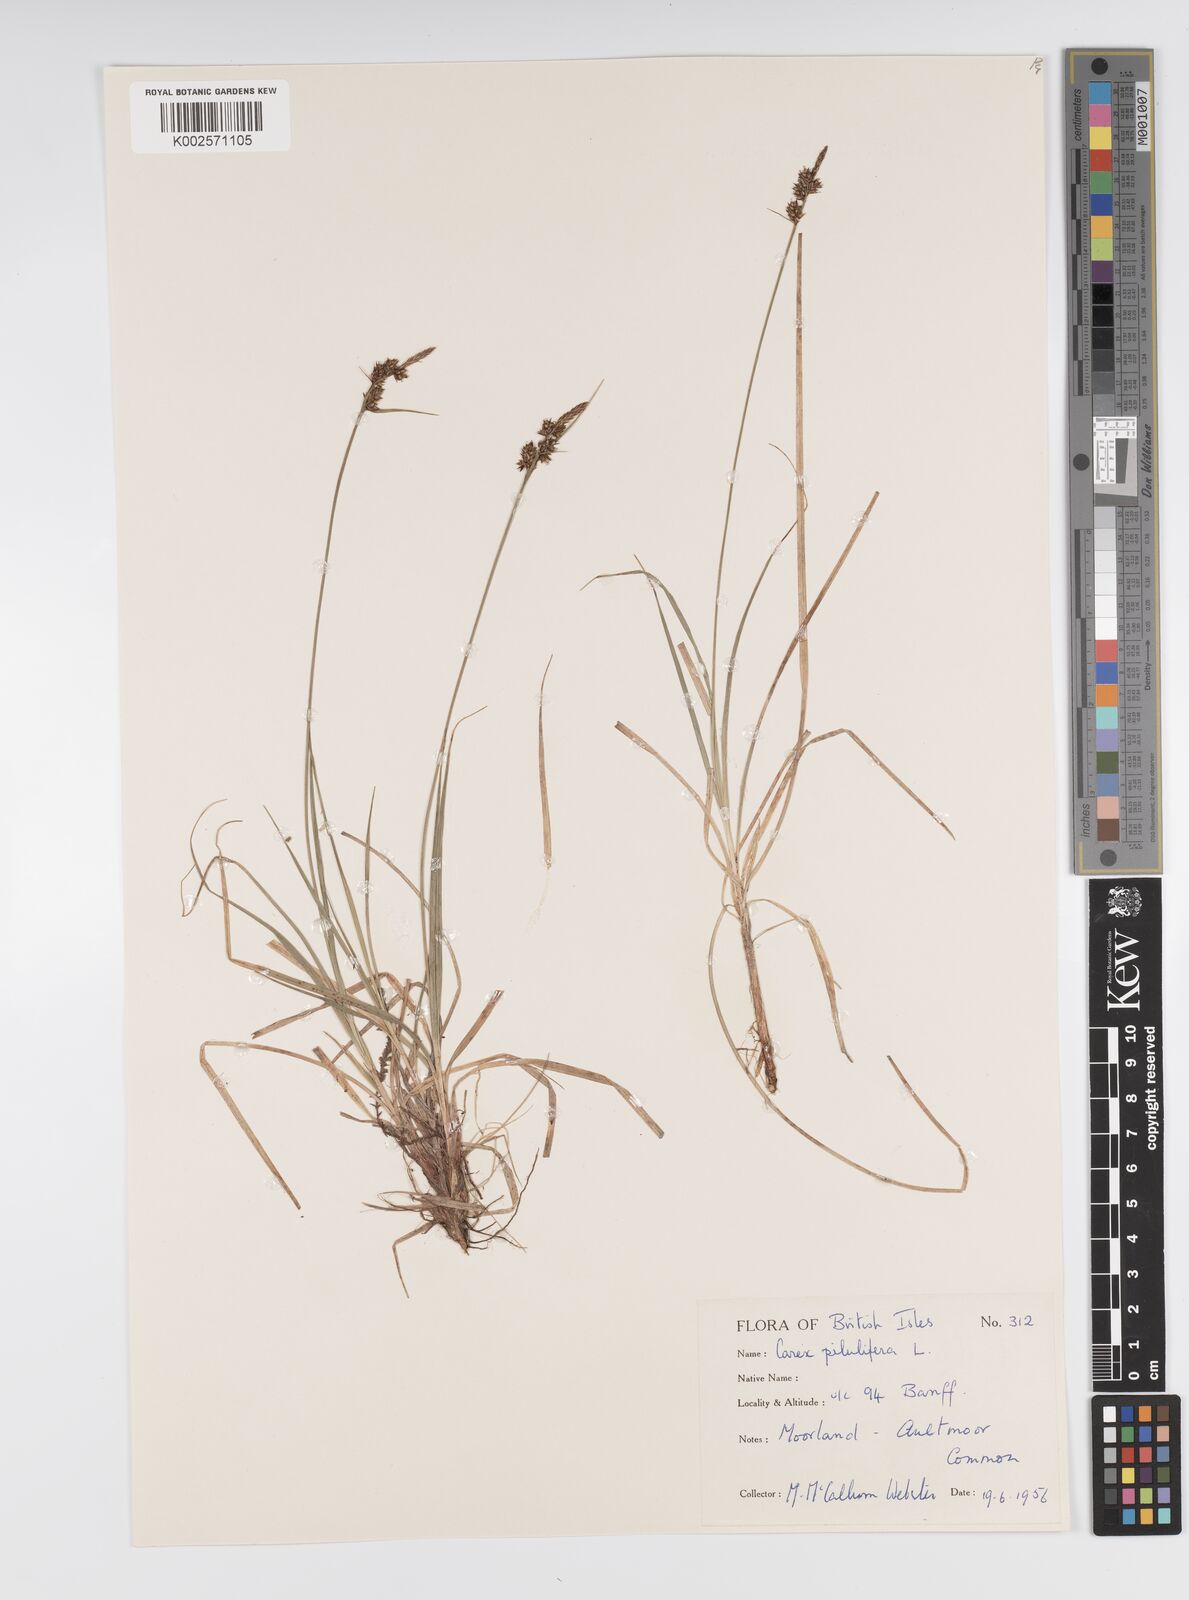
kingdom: Plantae
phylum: Tracheophyta
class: Liliopsida
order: Poales
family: Cyperaceae
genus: Carex
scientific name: Carex pilulifera
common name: Pill sedge
